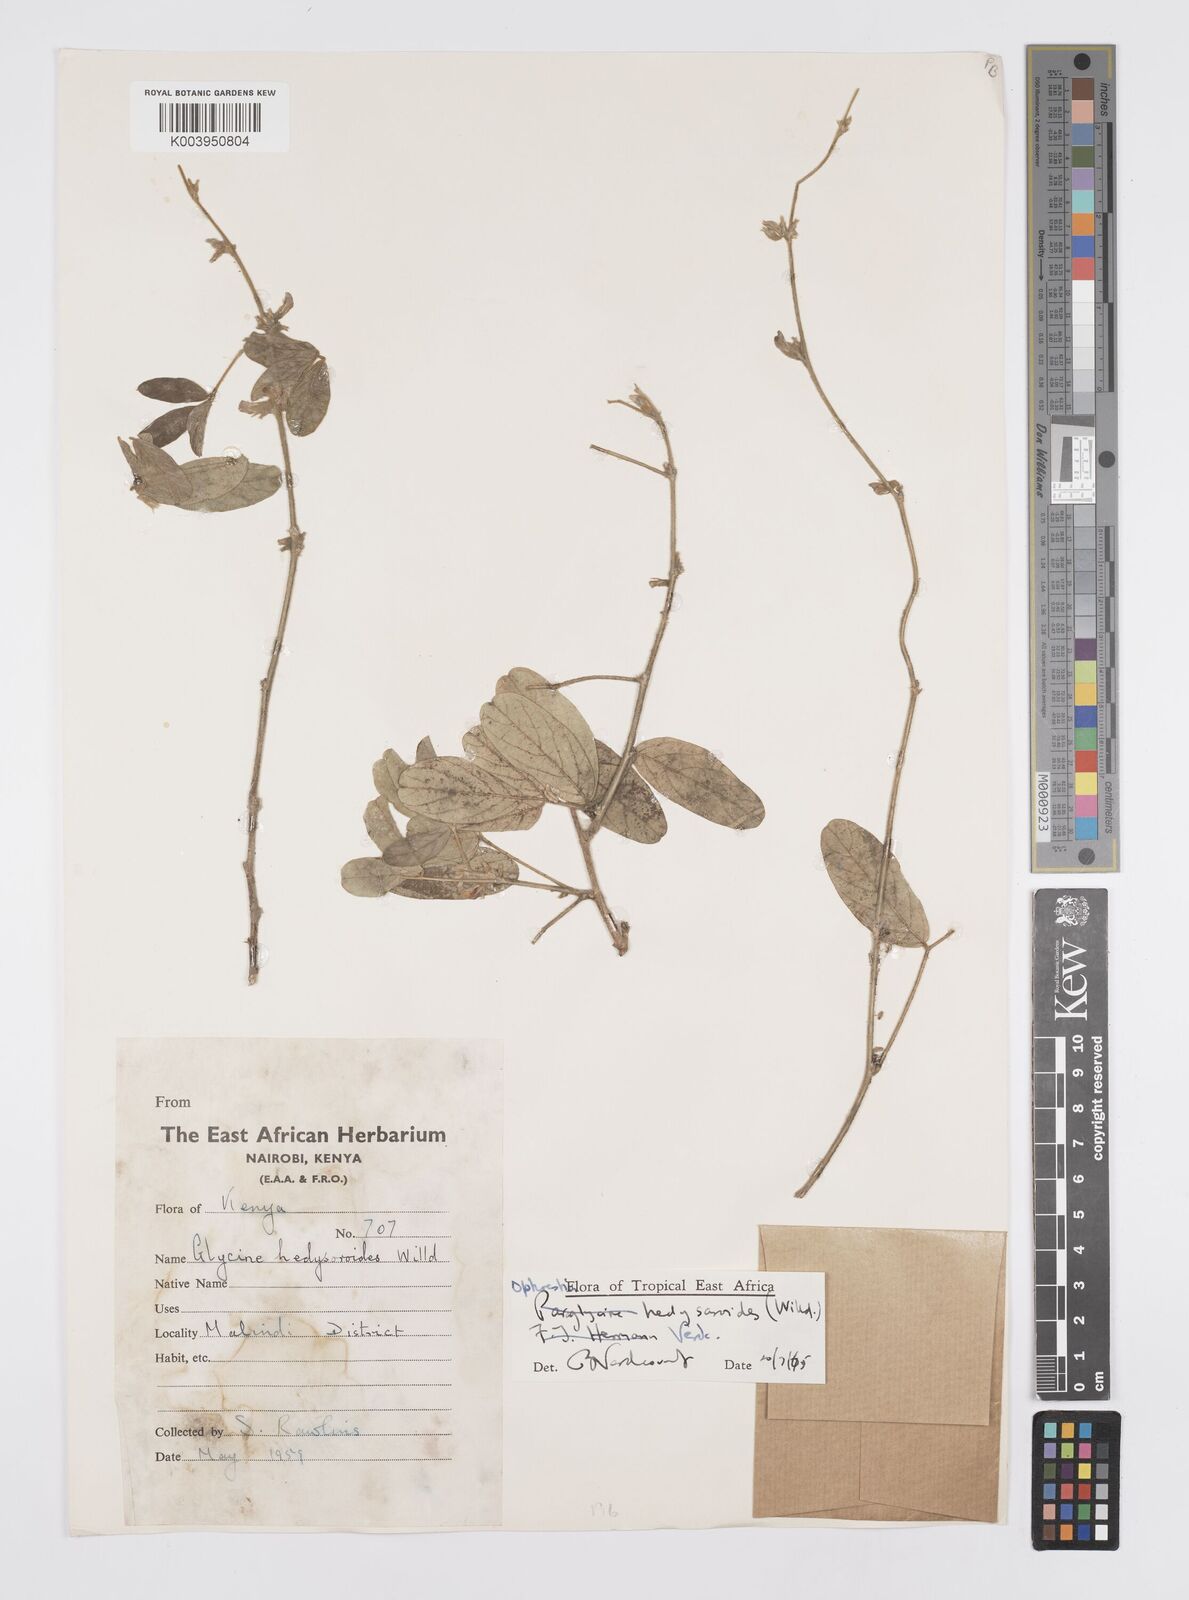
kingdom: Plantae
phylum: Tracheophyta
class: Magnoliopsida
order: Fabales
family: Fabaceae
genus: Ophrestia
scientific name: Ophrestia hedysaroides
